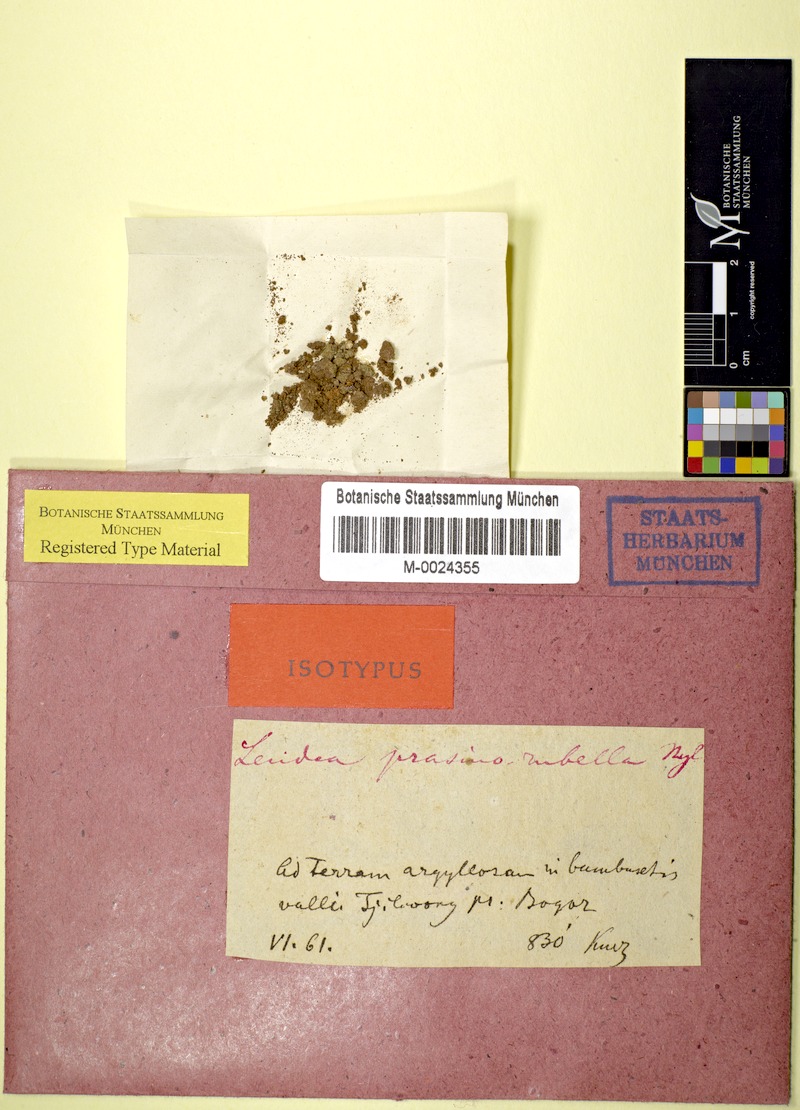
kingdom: Fungi
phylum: Ascomycota
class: Lecanoromycetes
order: Lecanorales
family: Ramalinaceae
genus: Bacidia
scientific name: Bacidia
